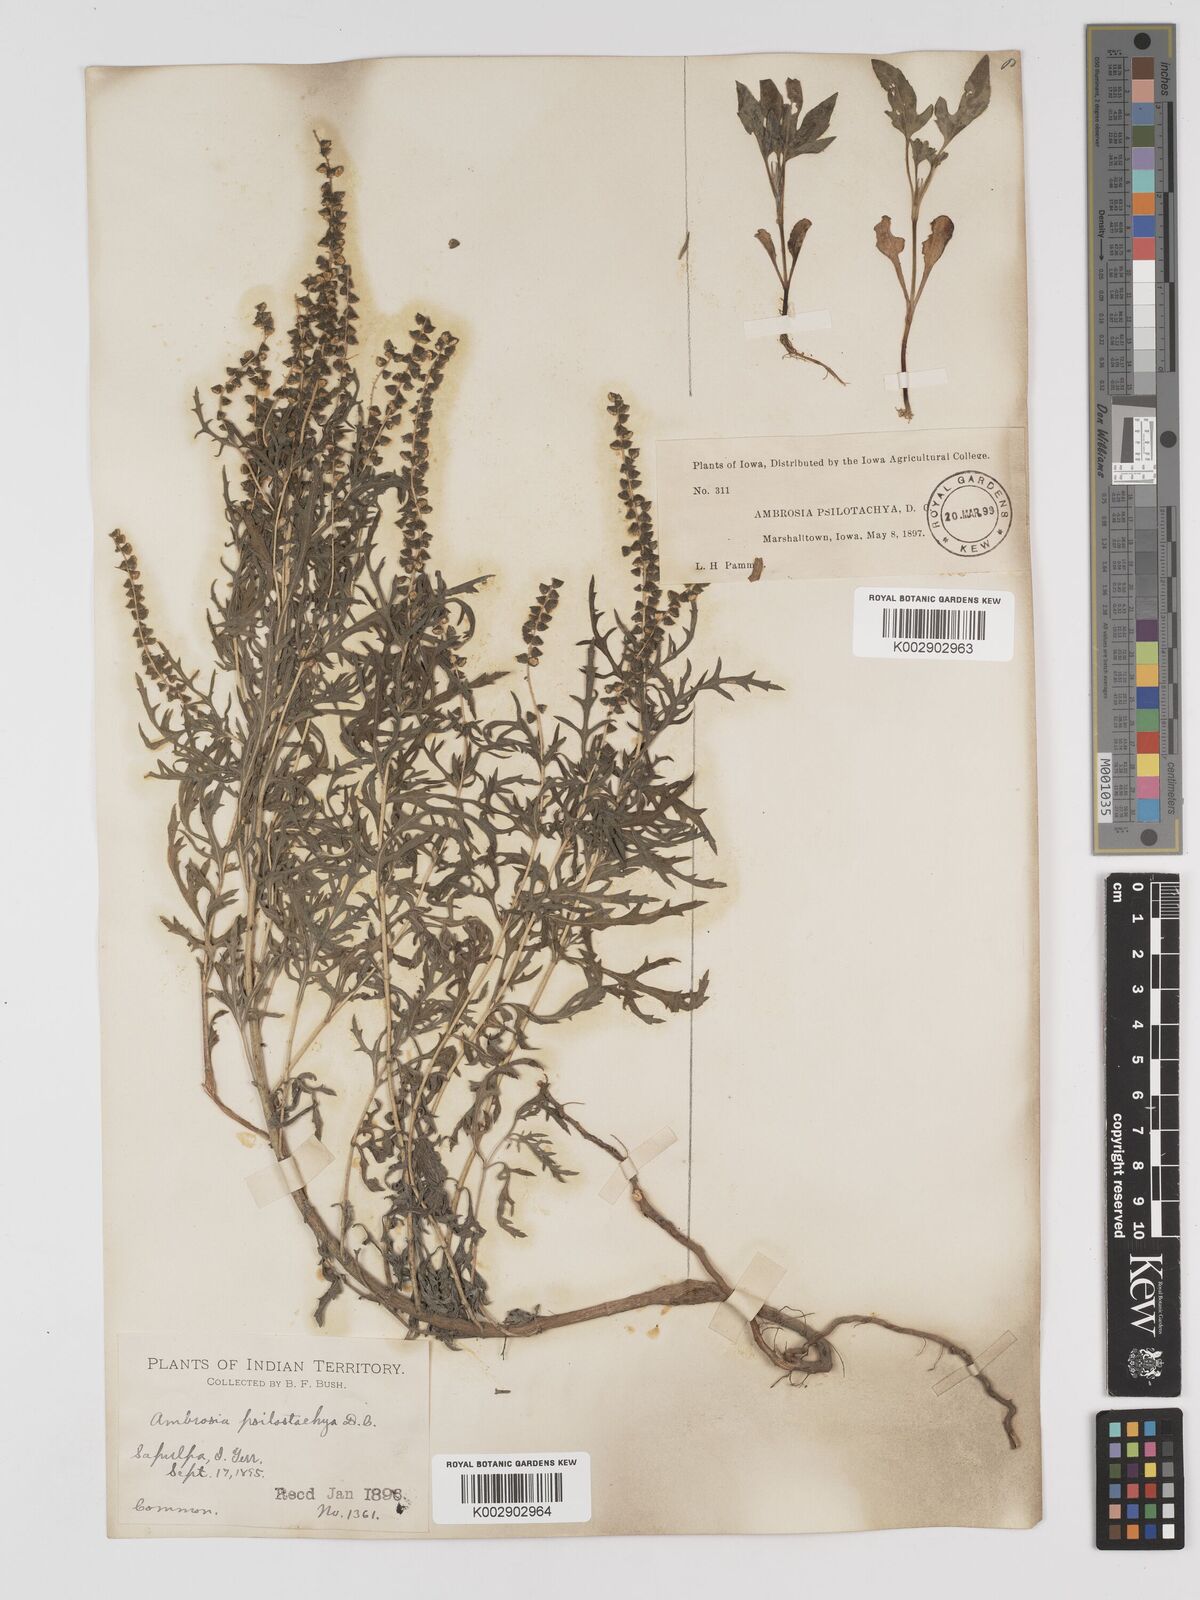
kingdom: Plantae
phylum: Tracheophyta
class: Magnoliopsida
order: Asterales
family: Asteraceae
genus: Ambrosia
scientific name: Ambrosia psilostachya
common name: Perennial ragweed
